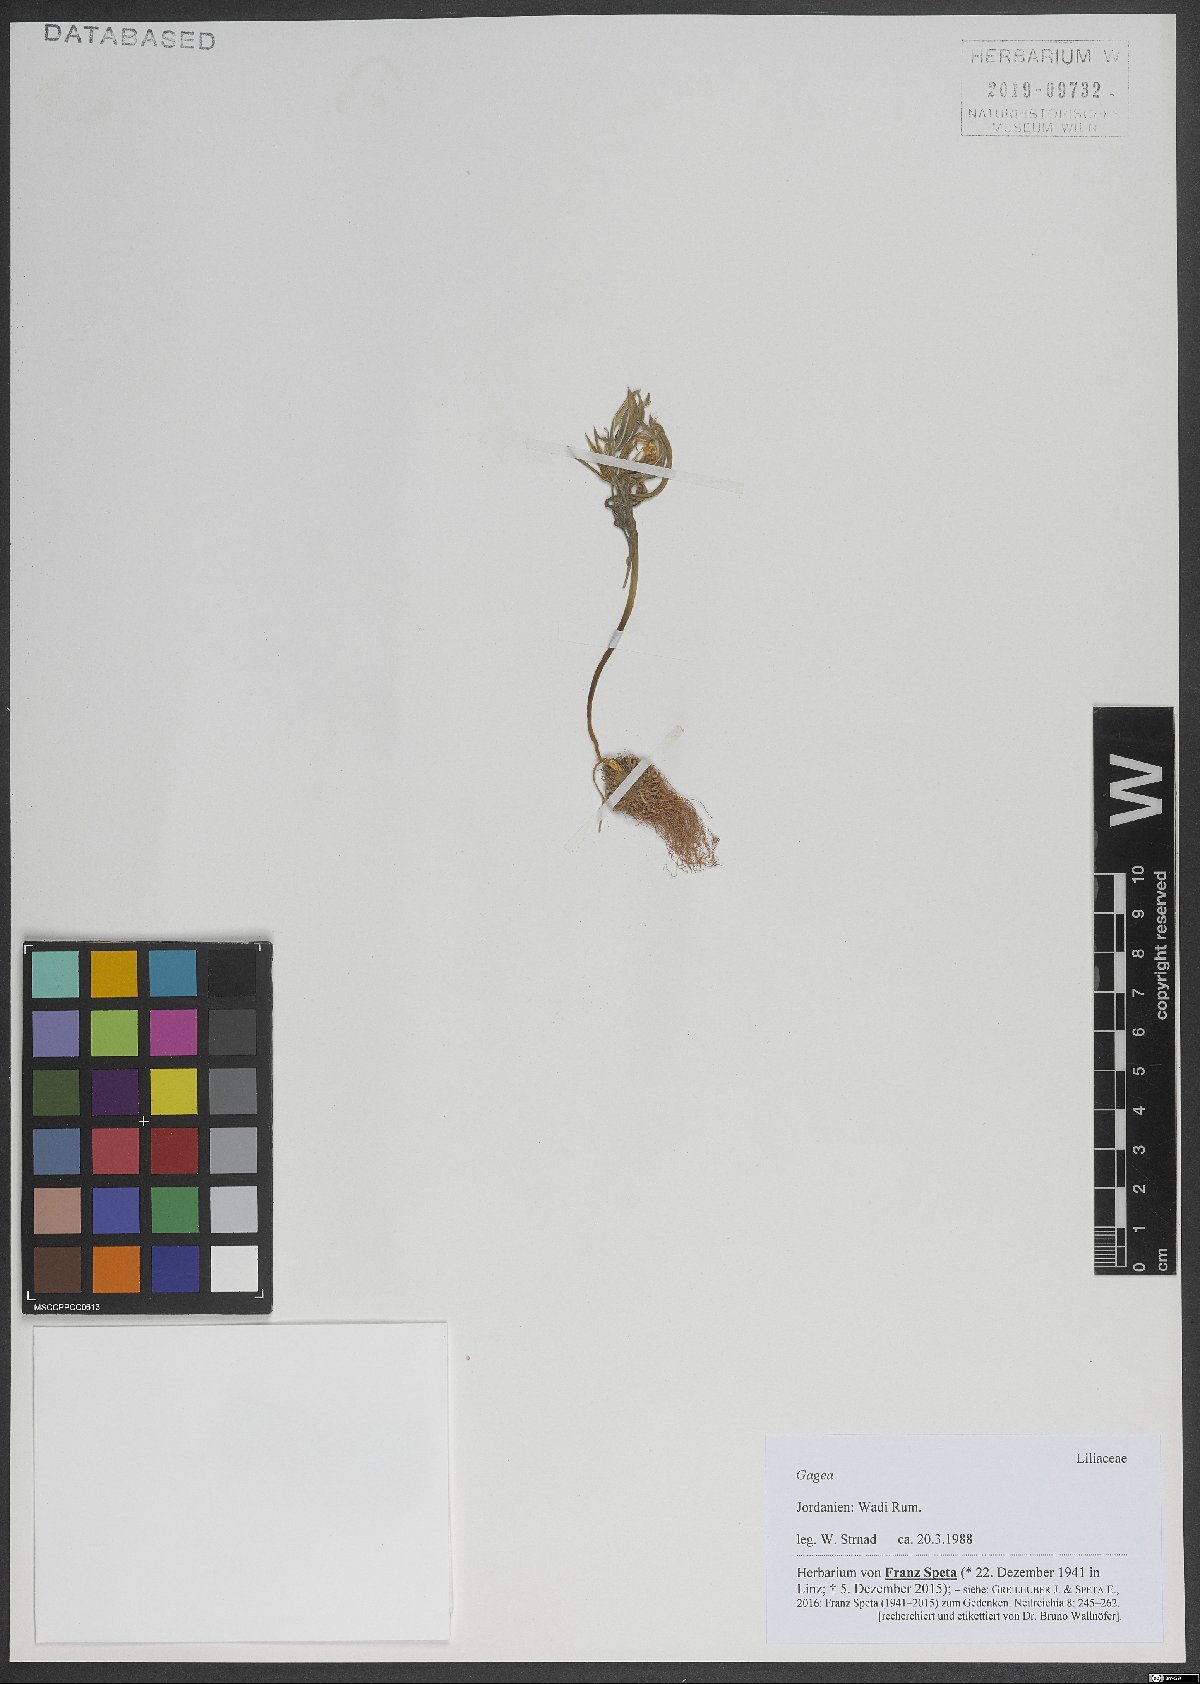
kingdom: Plantae
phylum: Tracheophyta
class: Liliopsida
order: Liliales
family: Liliaceae
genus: Gagea
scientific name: Gagea
